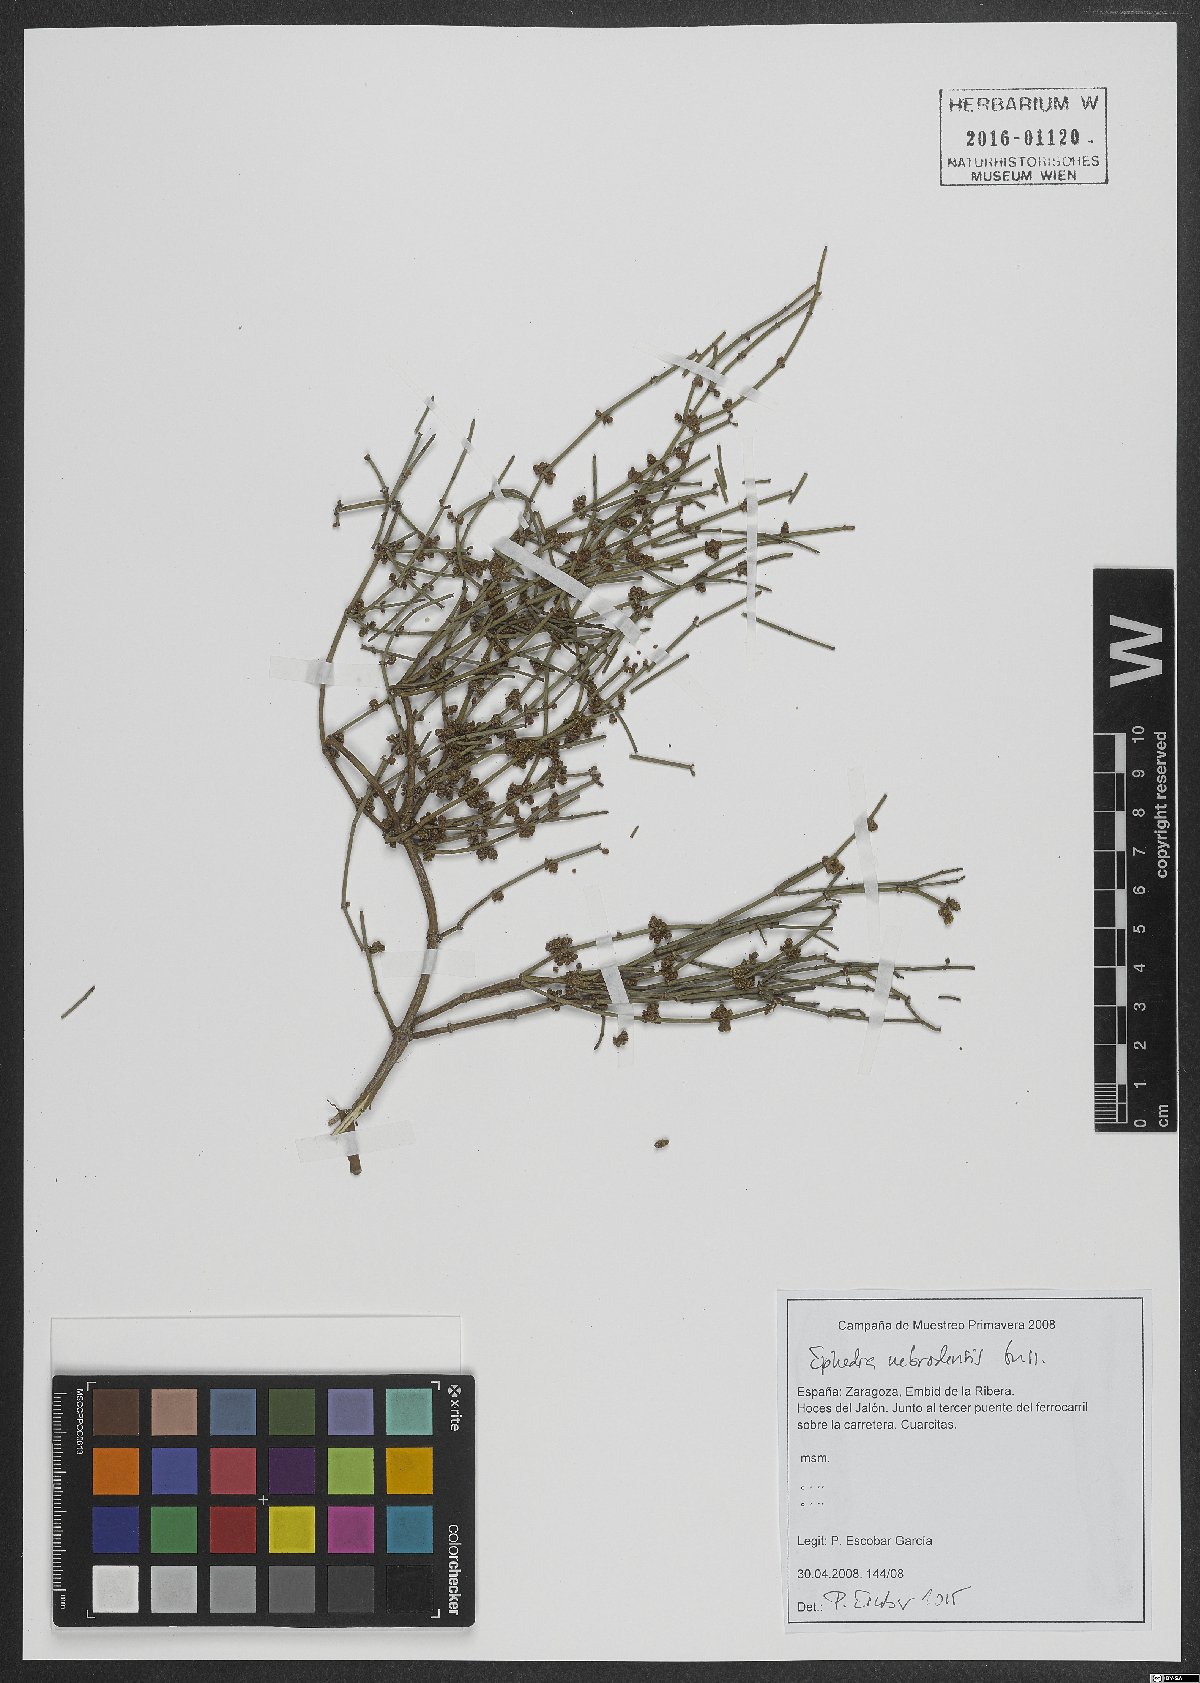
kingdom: Plantae
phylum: Tracheophyta
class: Gnetopsida
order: Ephedrales
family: Ephedraceae
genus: Ephedra
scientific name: Ephedra foeminea
